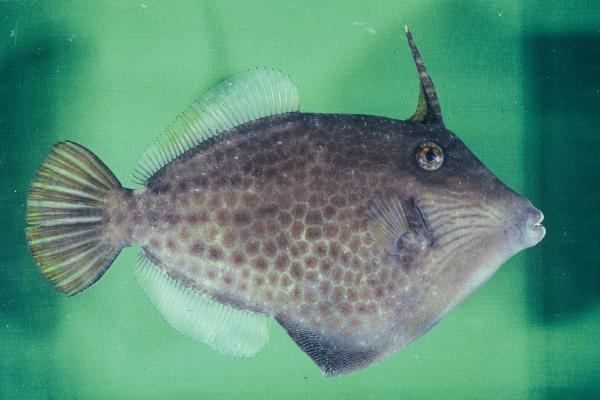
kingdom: Animalia
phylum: Chordata
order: Tetraodontiformes
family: Monacanthidae
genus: Cantherhines
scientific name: Cantherhines pardalis
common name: Honeycomb filefish
